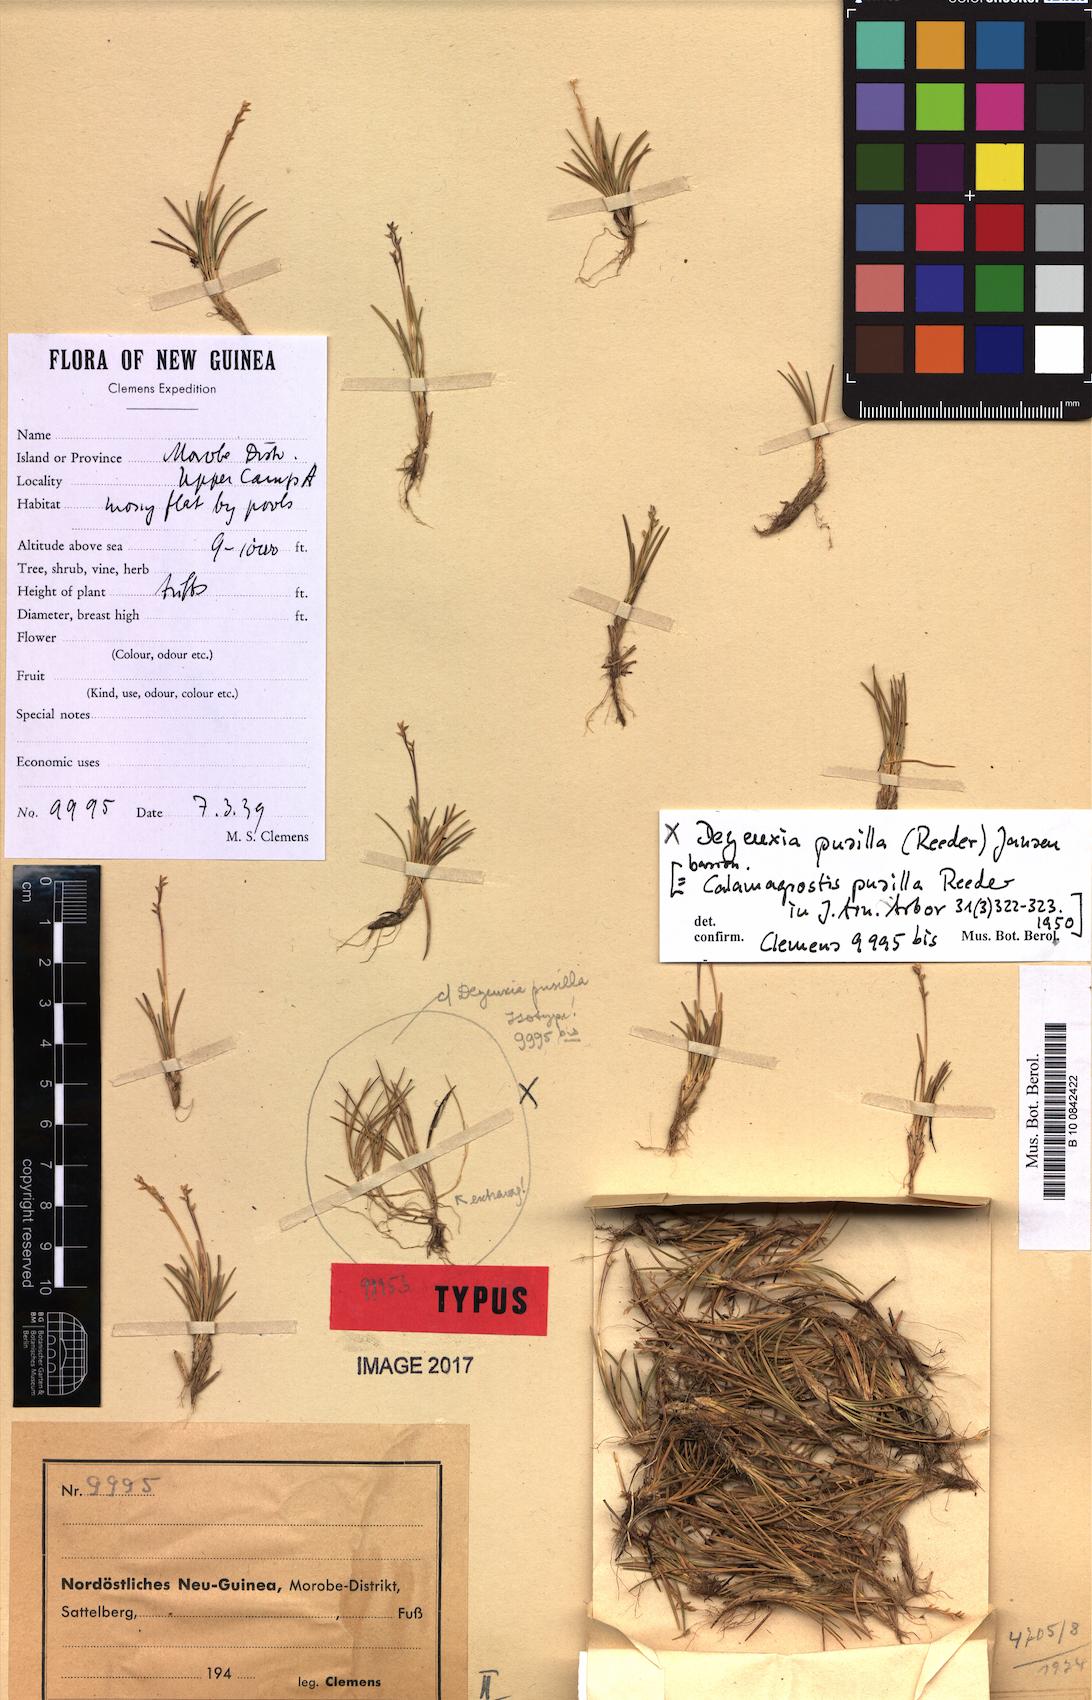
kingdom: Plantae
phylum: Tracheophyta
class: Liliopsida
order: Poales
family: Poaceae
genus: Calamagrostis
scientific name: Calamagrostis pusilla
